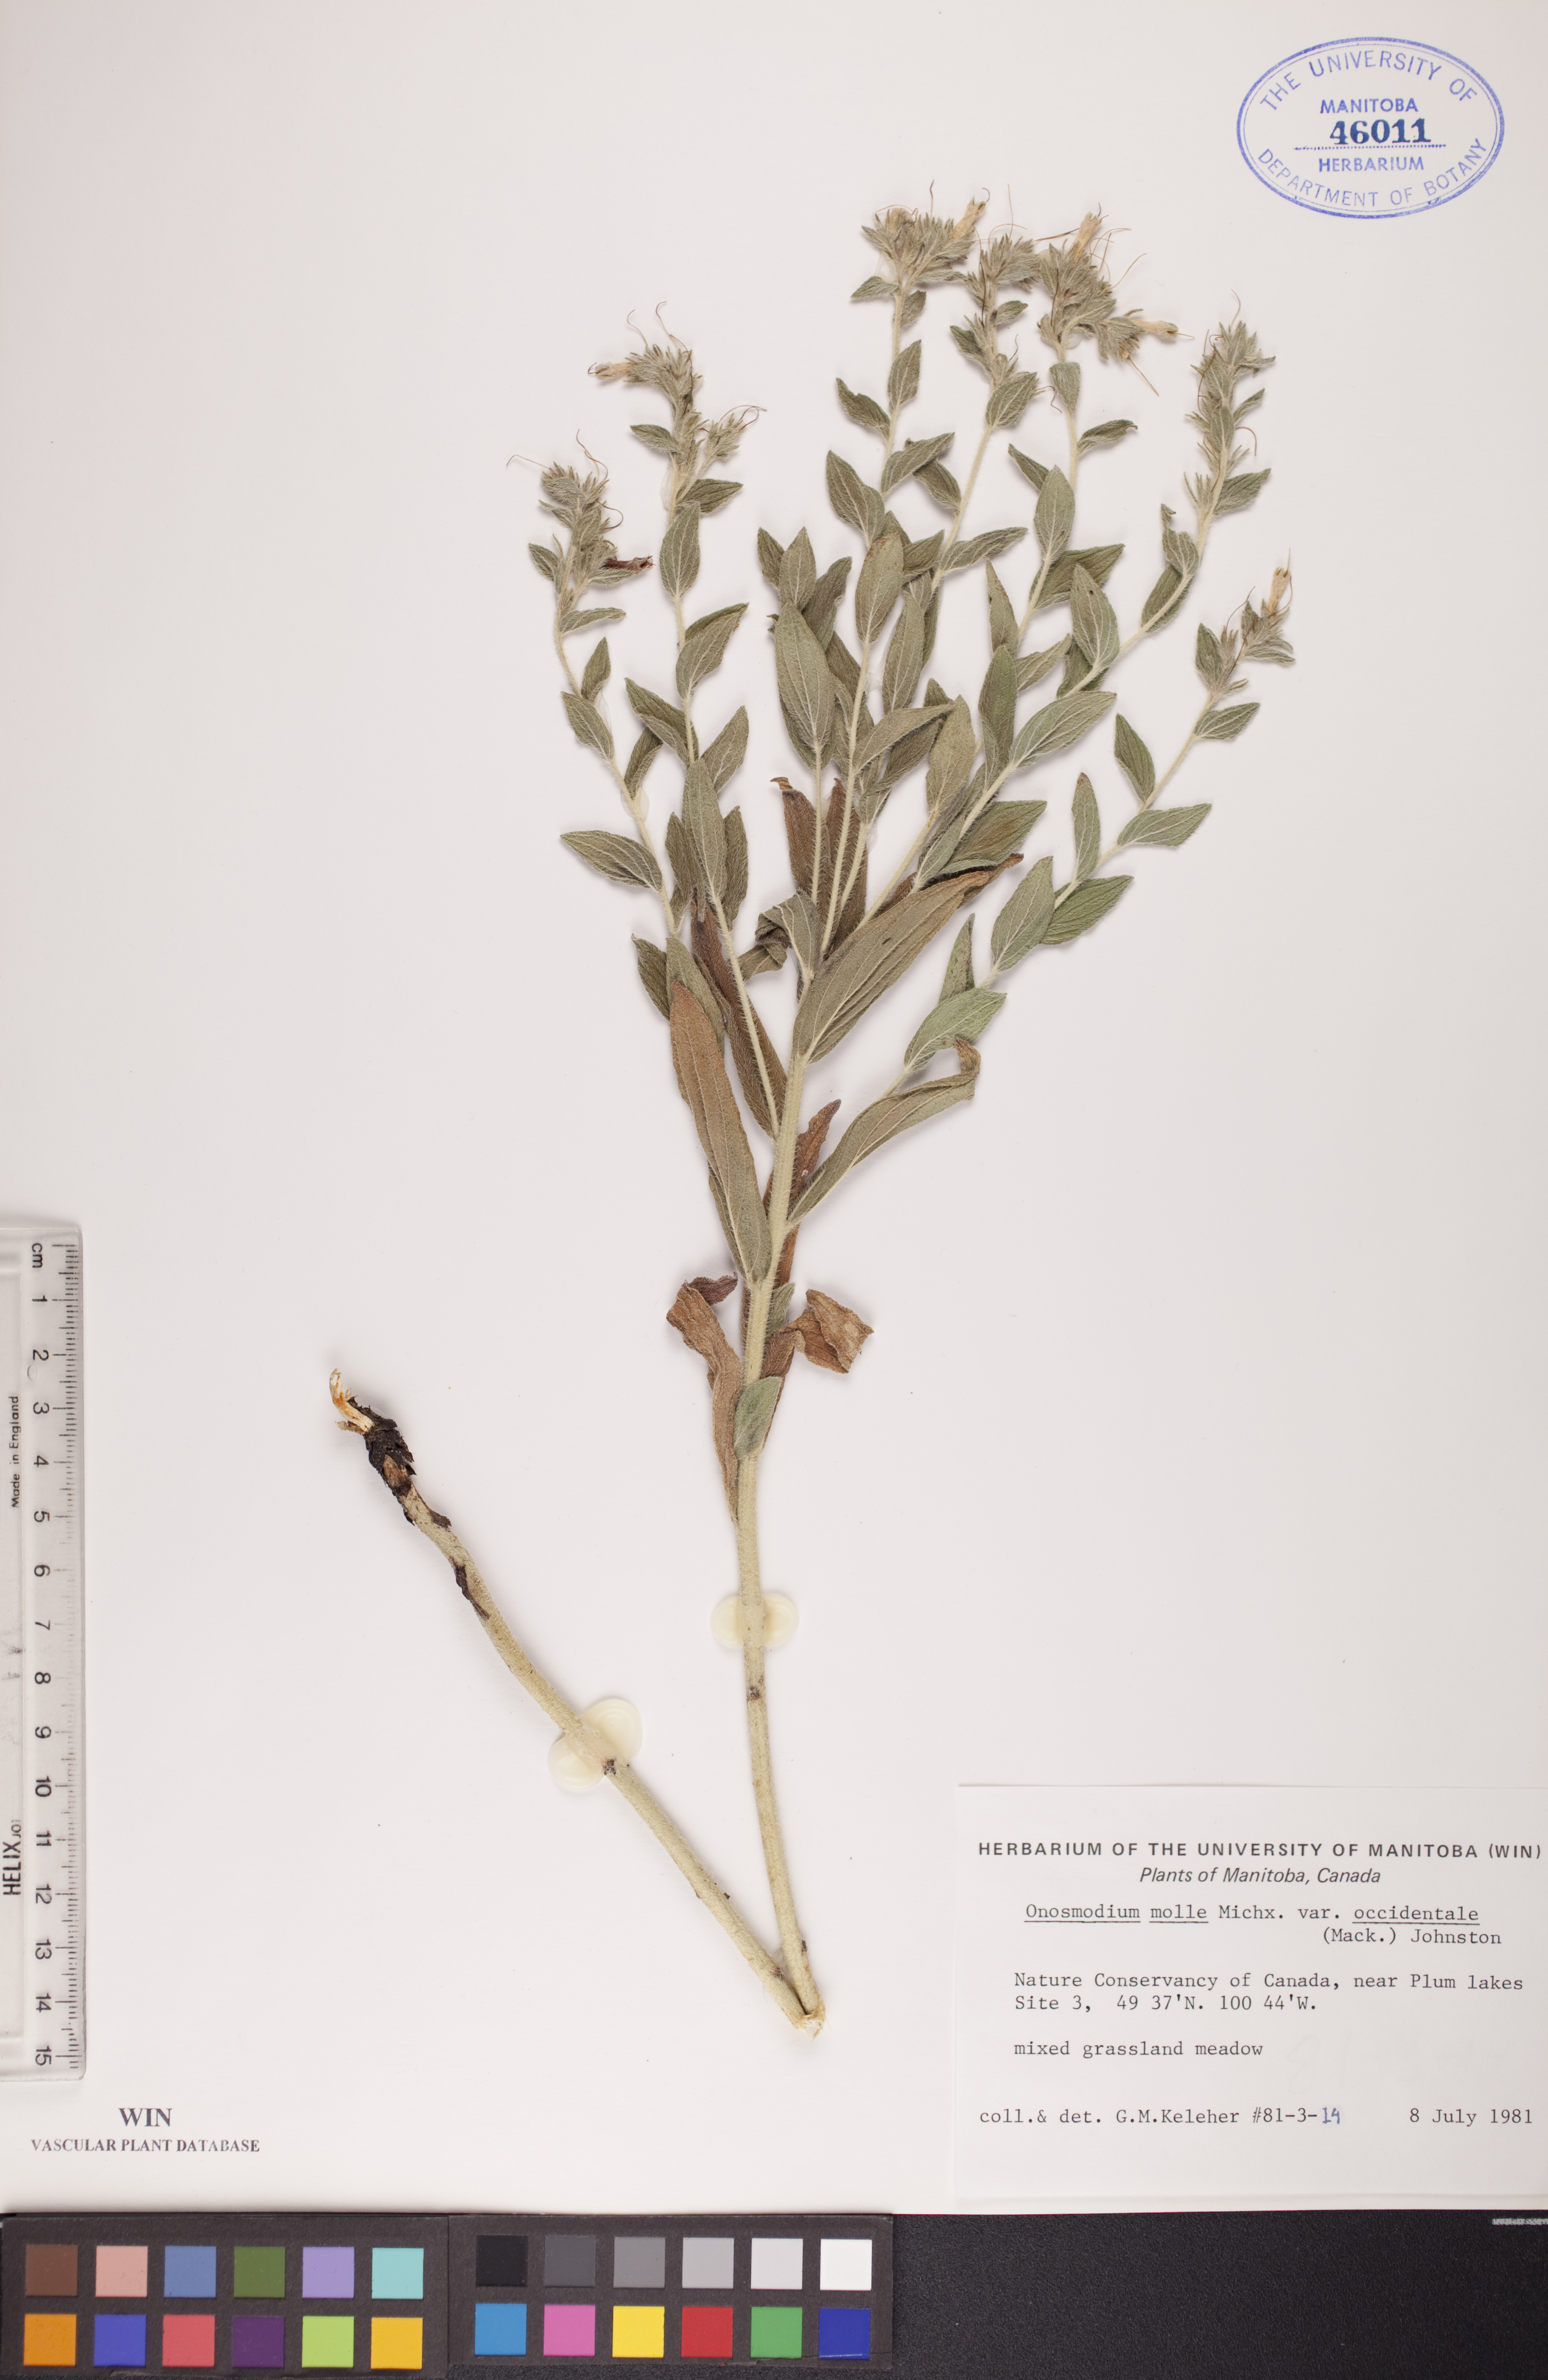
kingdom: Plantae
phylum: Tracheophyta
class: Magnoliopsida
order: Boraginales
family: Boraginaceae
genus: Lithospermum
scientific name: Lithospermum occidentale
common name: Western false gromwell
